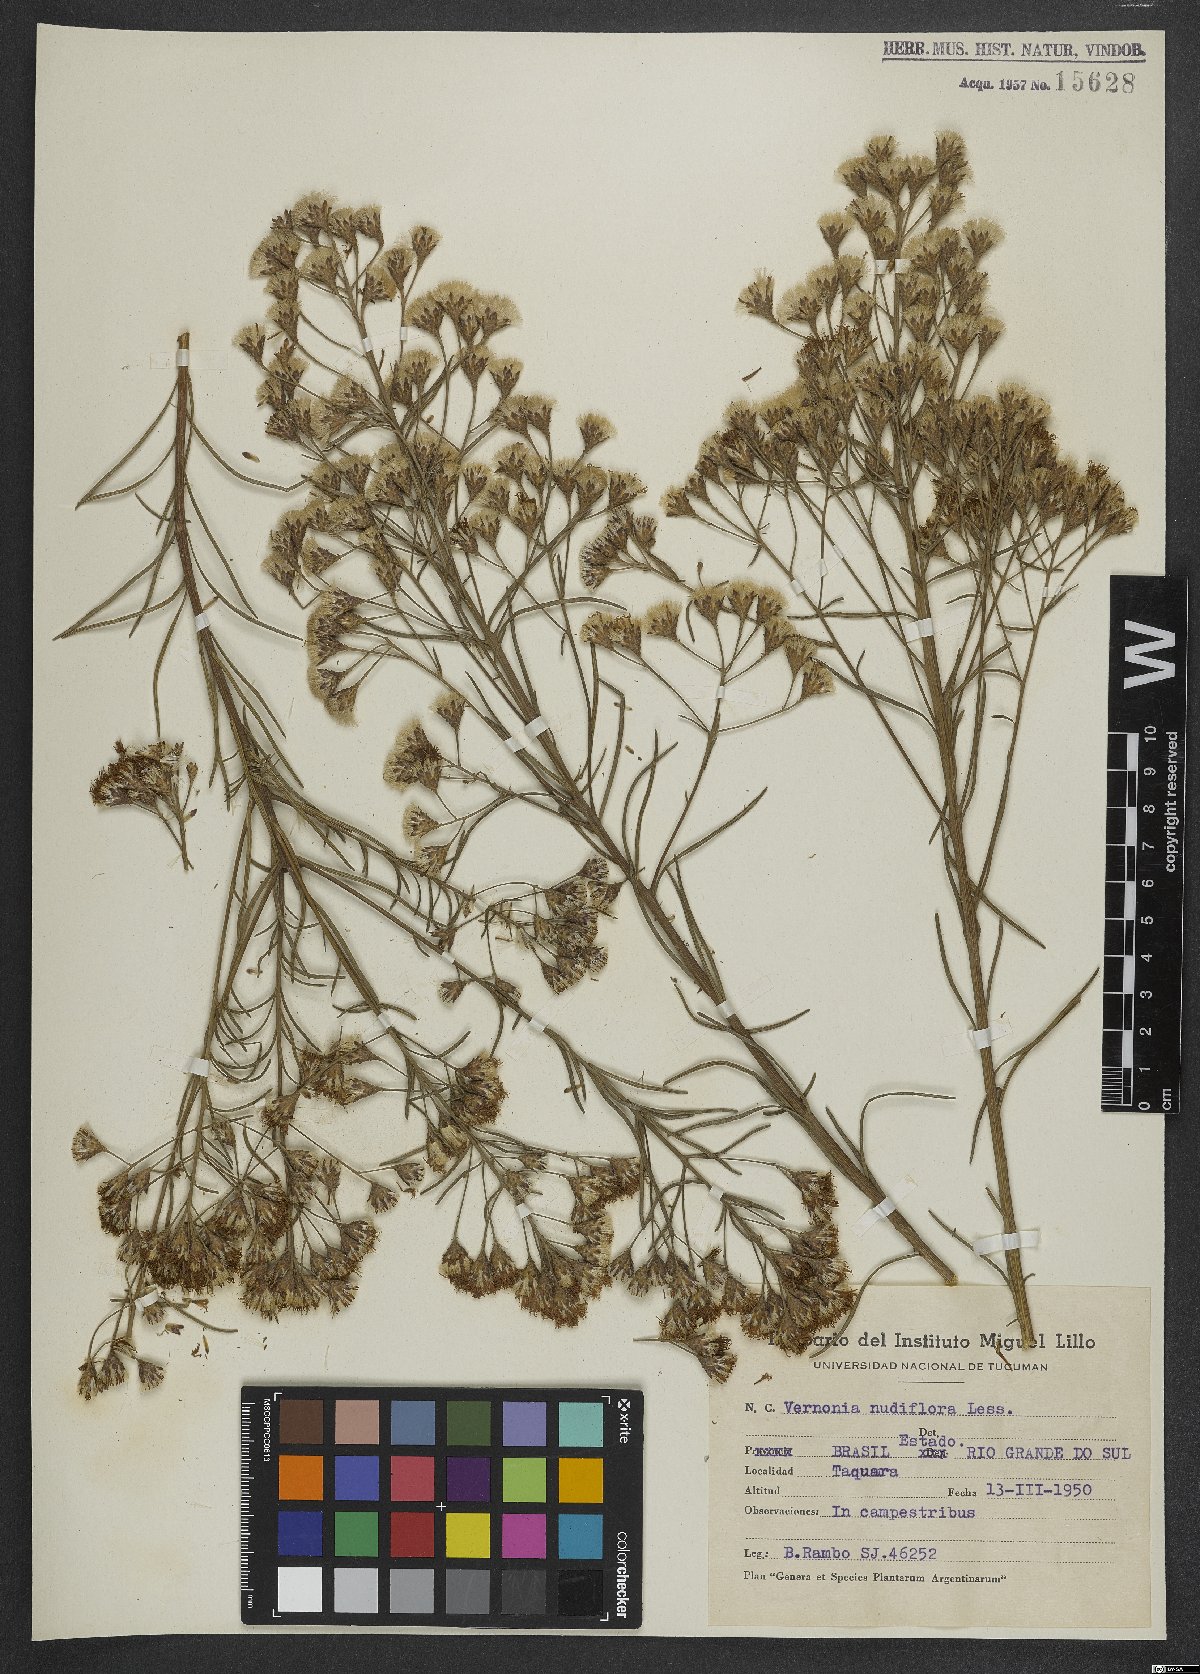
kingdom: Plantae
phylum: Tracheophyta
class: Magnoliopsida
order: Asterales
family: Asteraceae
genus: Vernonanthura
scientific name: Vernonanthura nudiflora
